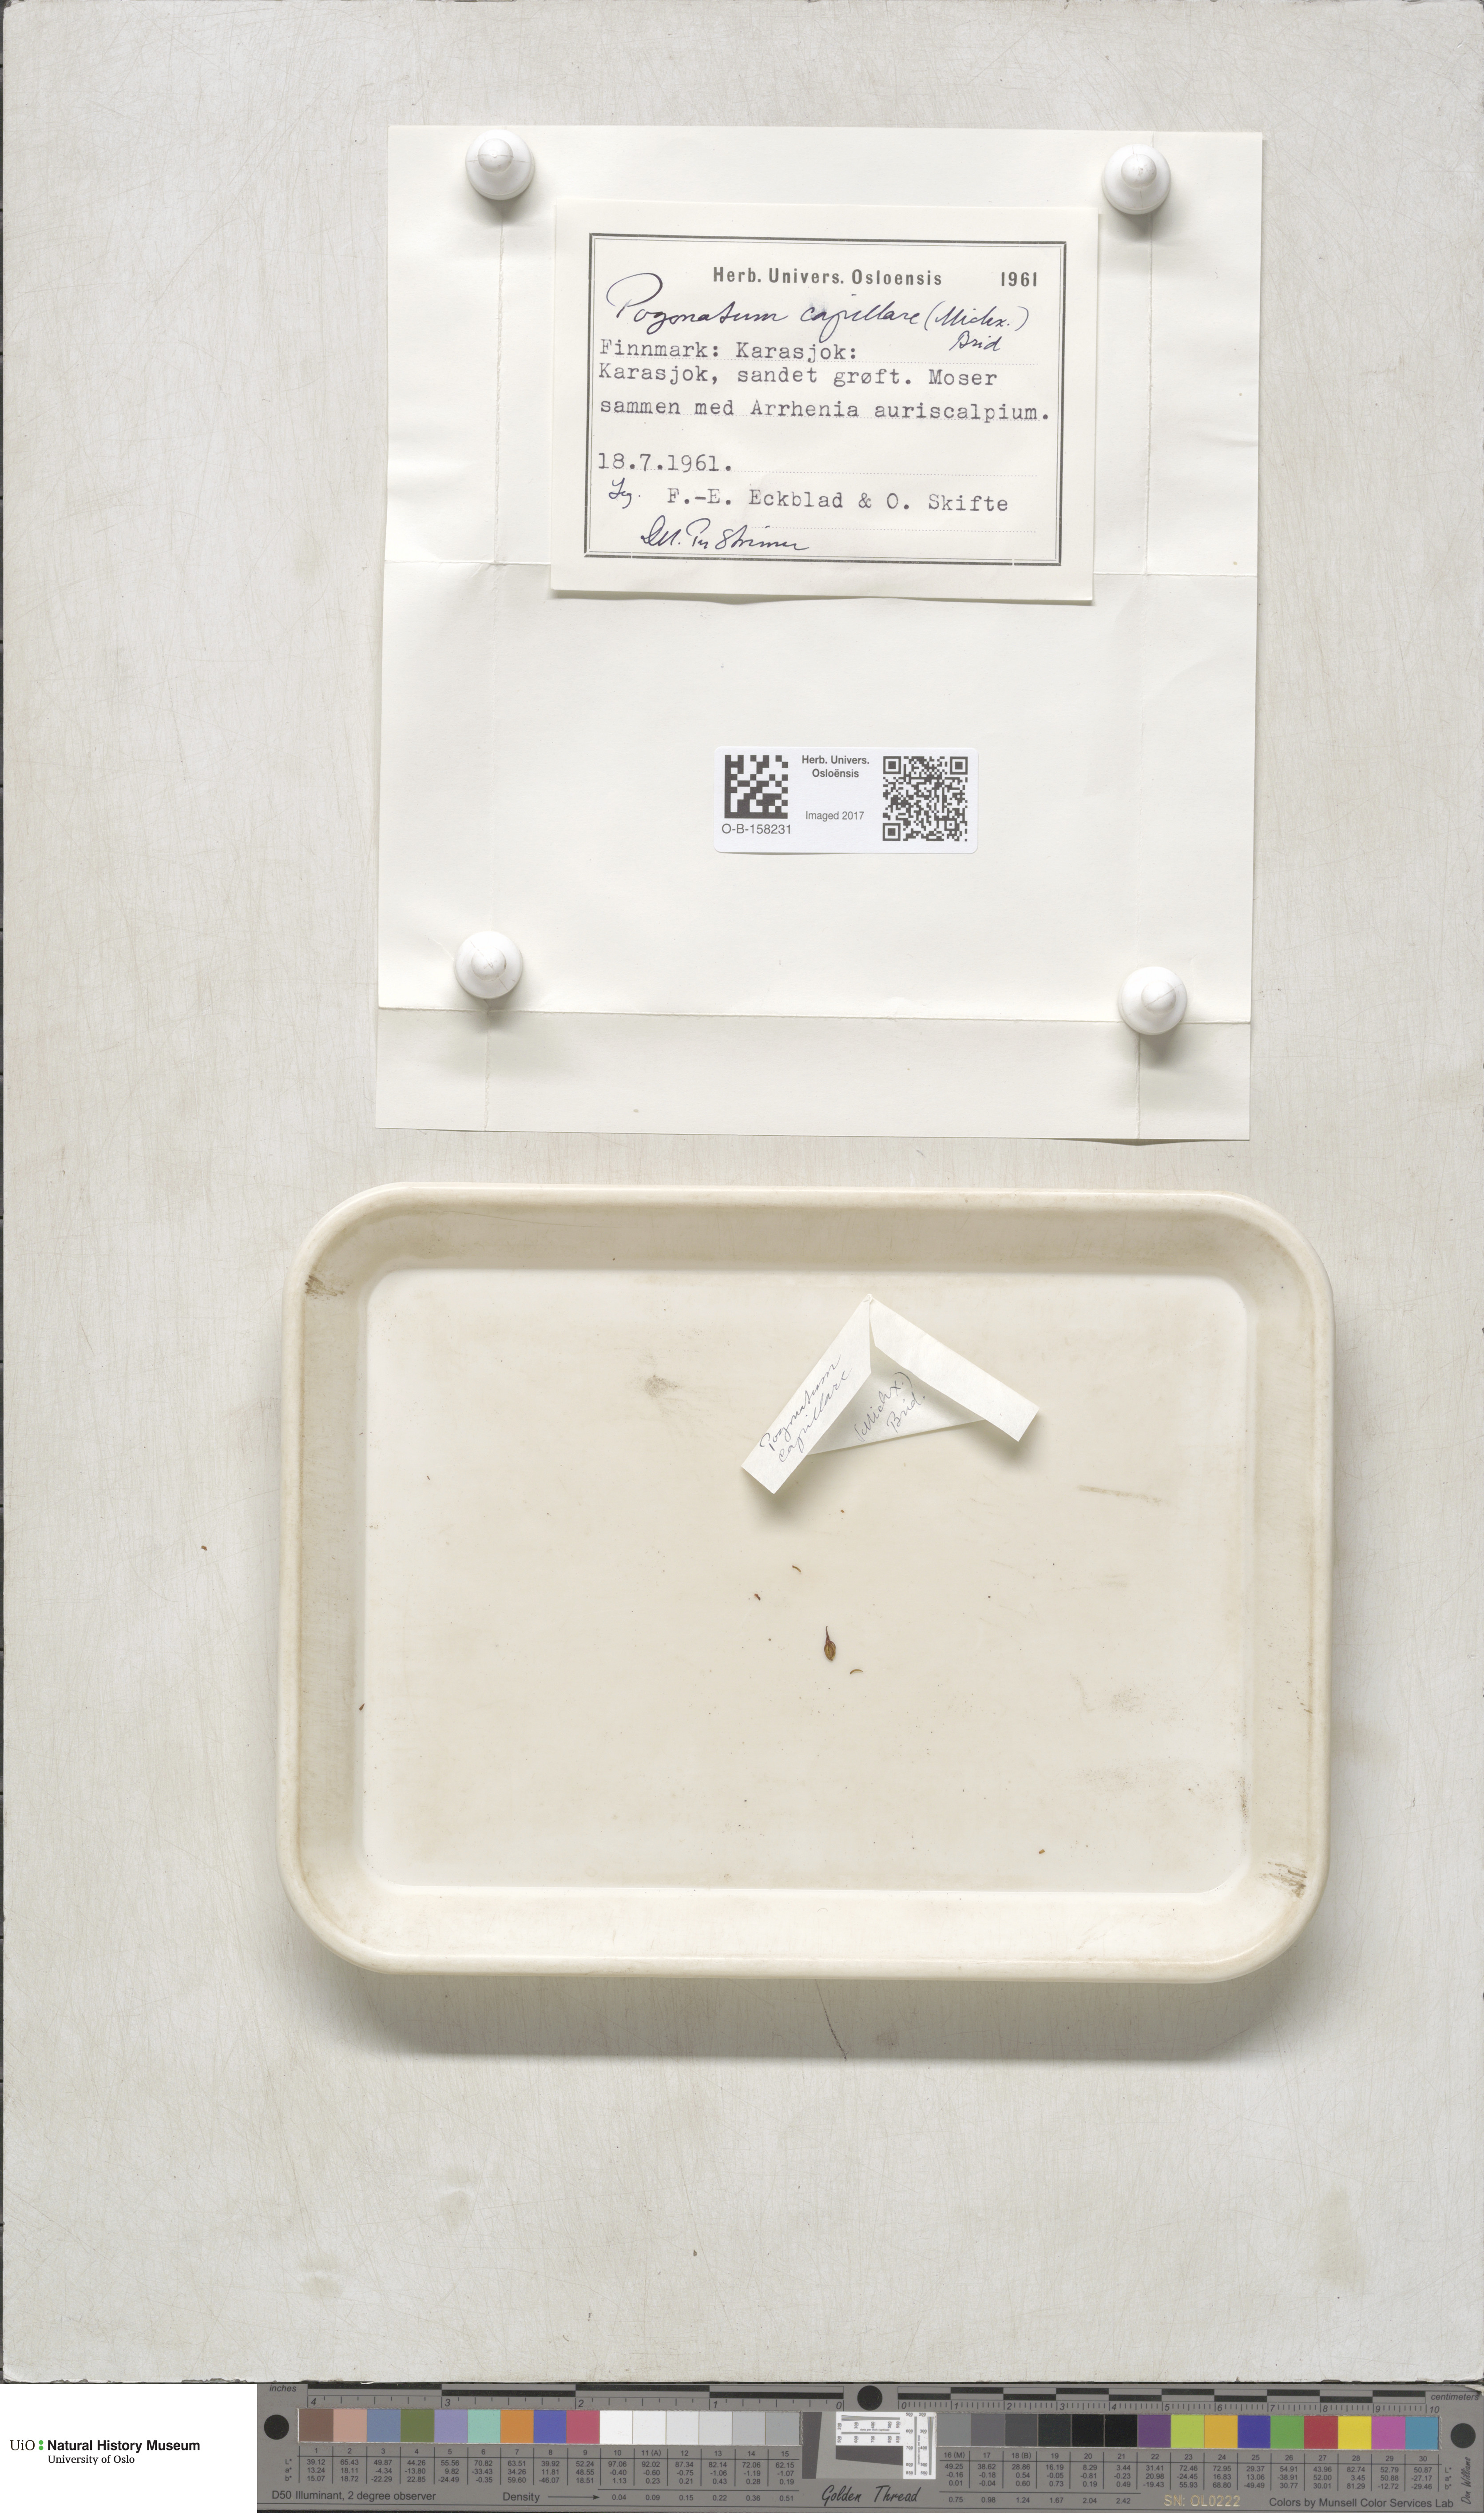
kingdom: Plantae
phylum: Bryophyta
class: Polytrichopsida
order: Polytrichales
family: Polytrichaceae
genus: Pogonatum
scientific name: Pogonatum dentatum
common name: Mountain hair moss
